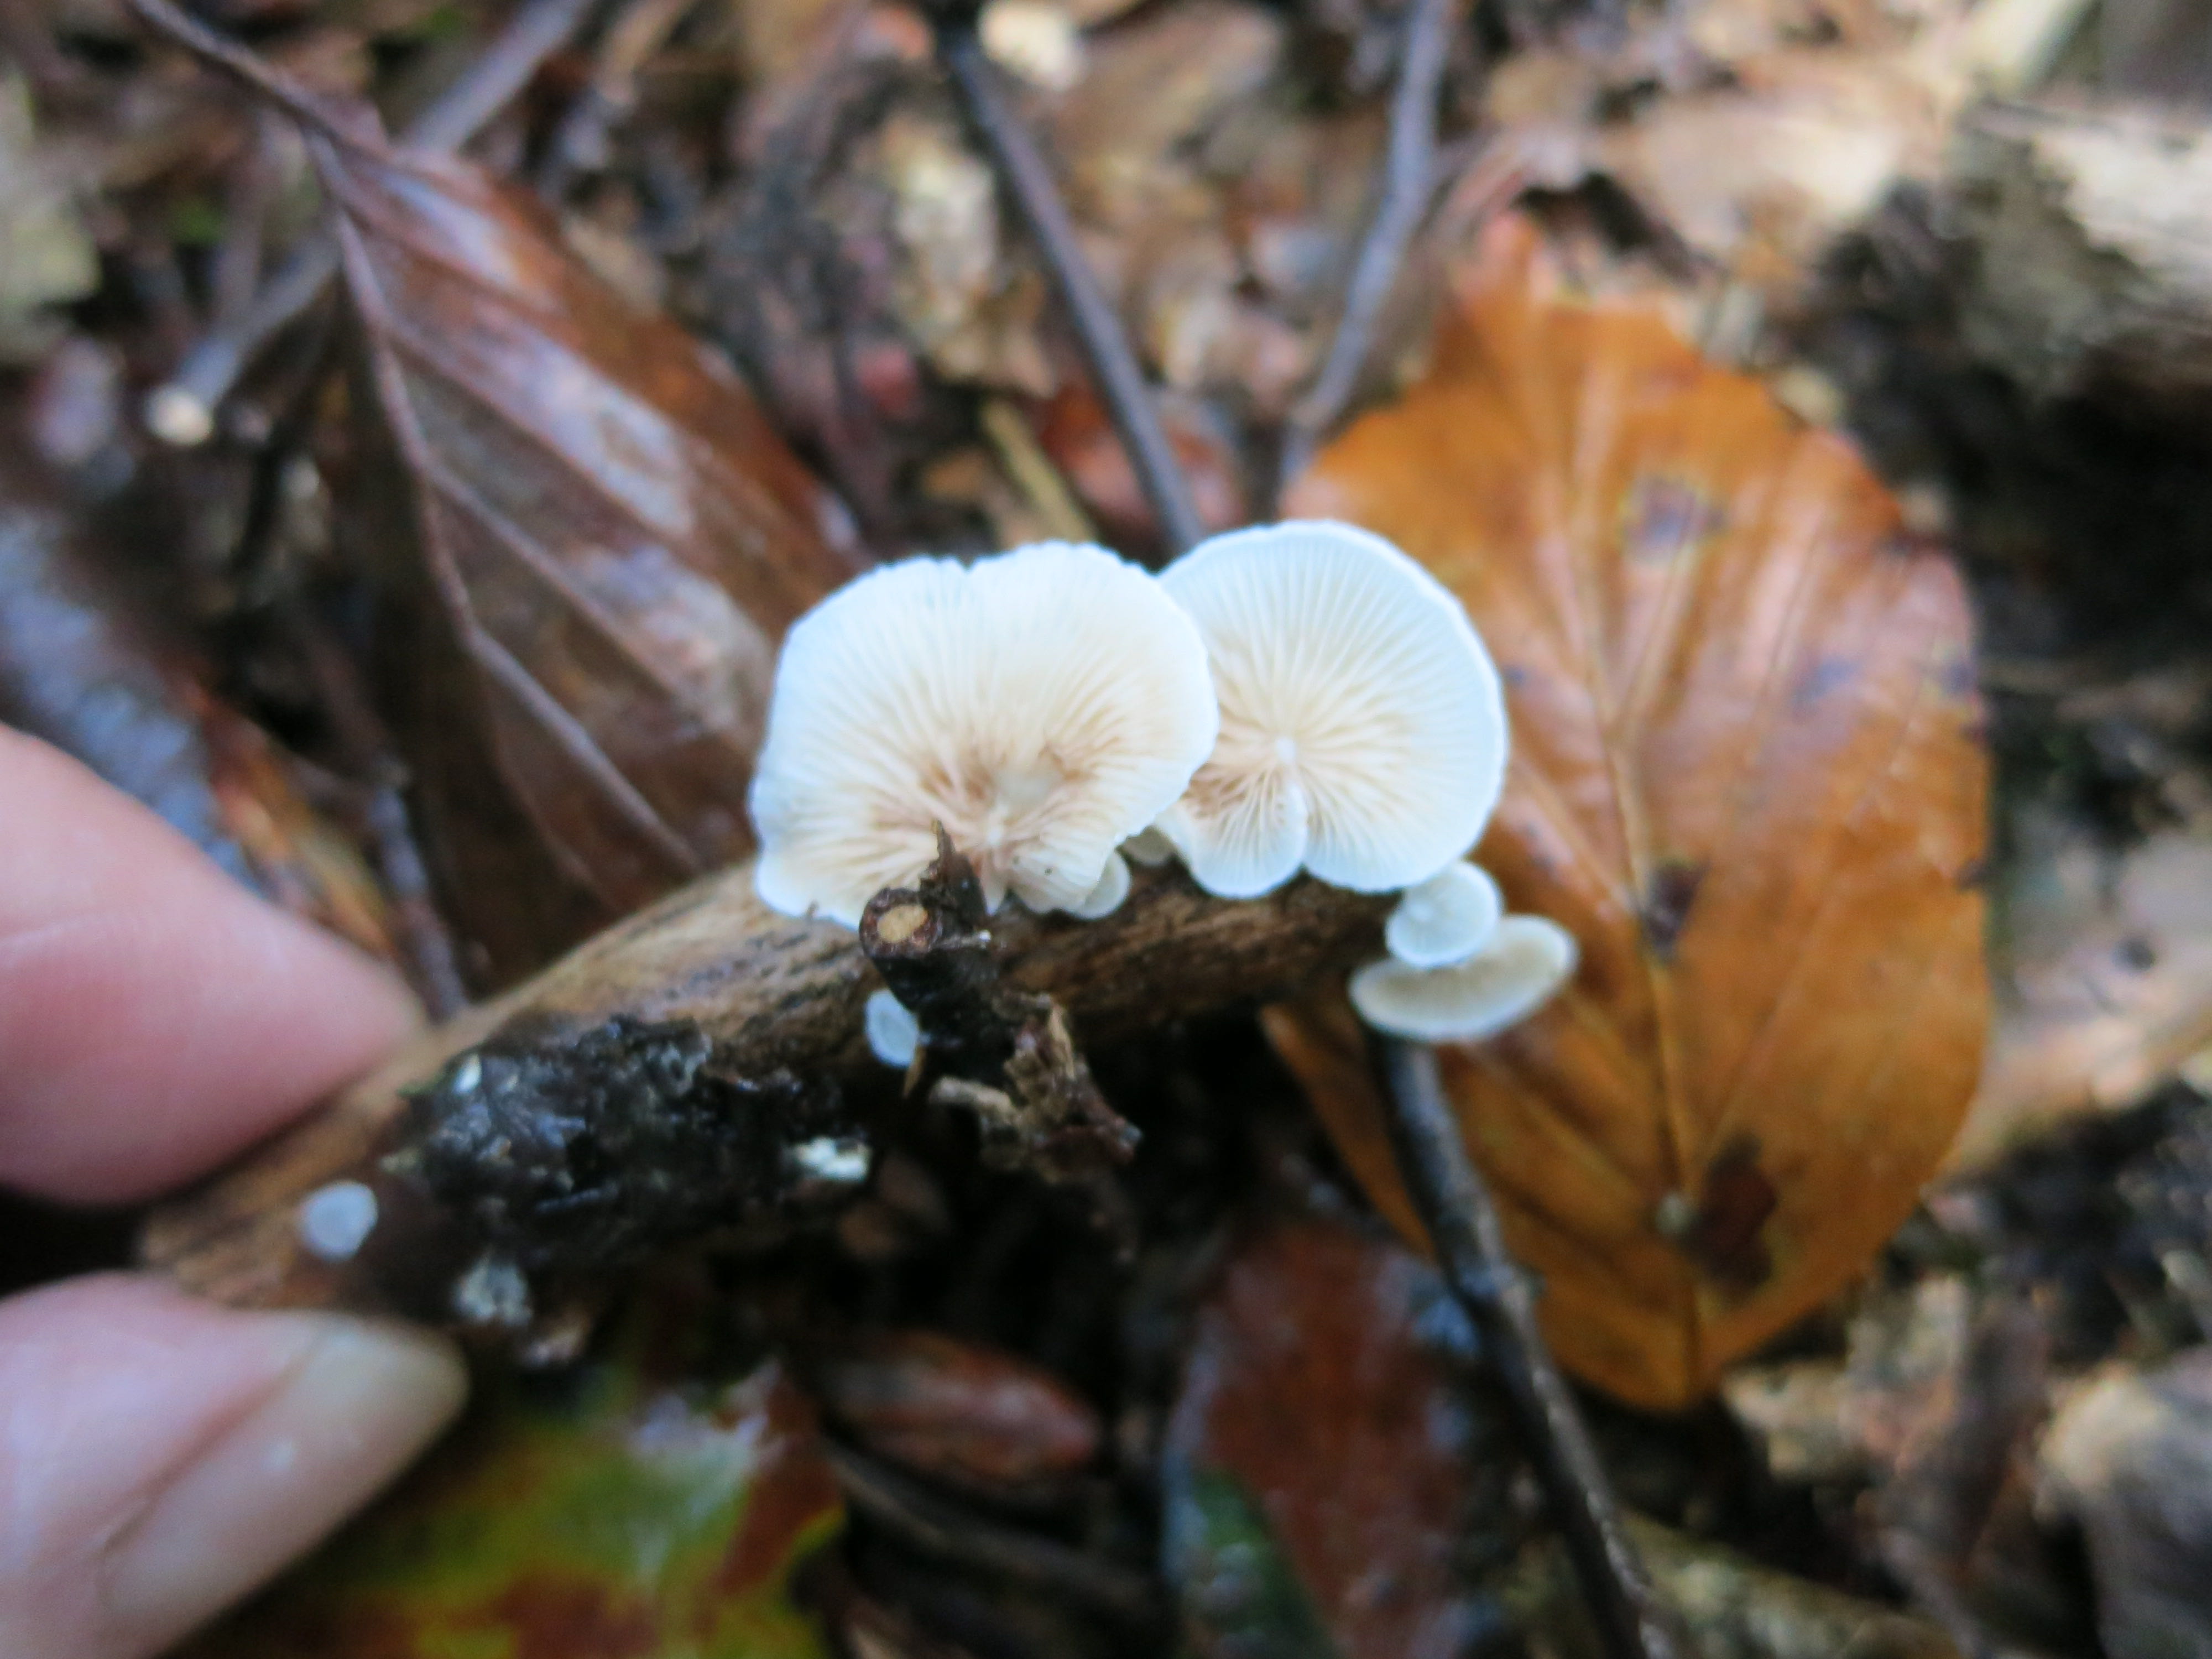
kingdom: Fungi
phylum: Basidiomycota
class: Agaricomycetes
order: Agaricales
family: Crepidotaceae
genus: Crepidotus
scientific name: Crepidotus cesatii
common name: almindelig muslingesvamp
